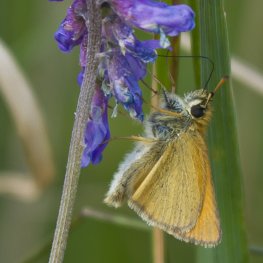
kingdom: Animalia
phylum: Arthropoda
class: Insecta
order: Lepidoptera
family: Hesperiidae
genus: Thymelicus
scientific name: Thymelicus lineola
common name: European Skipper
